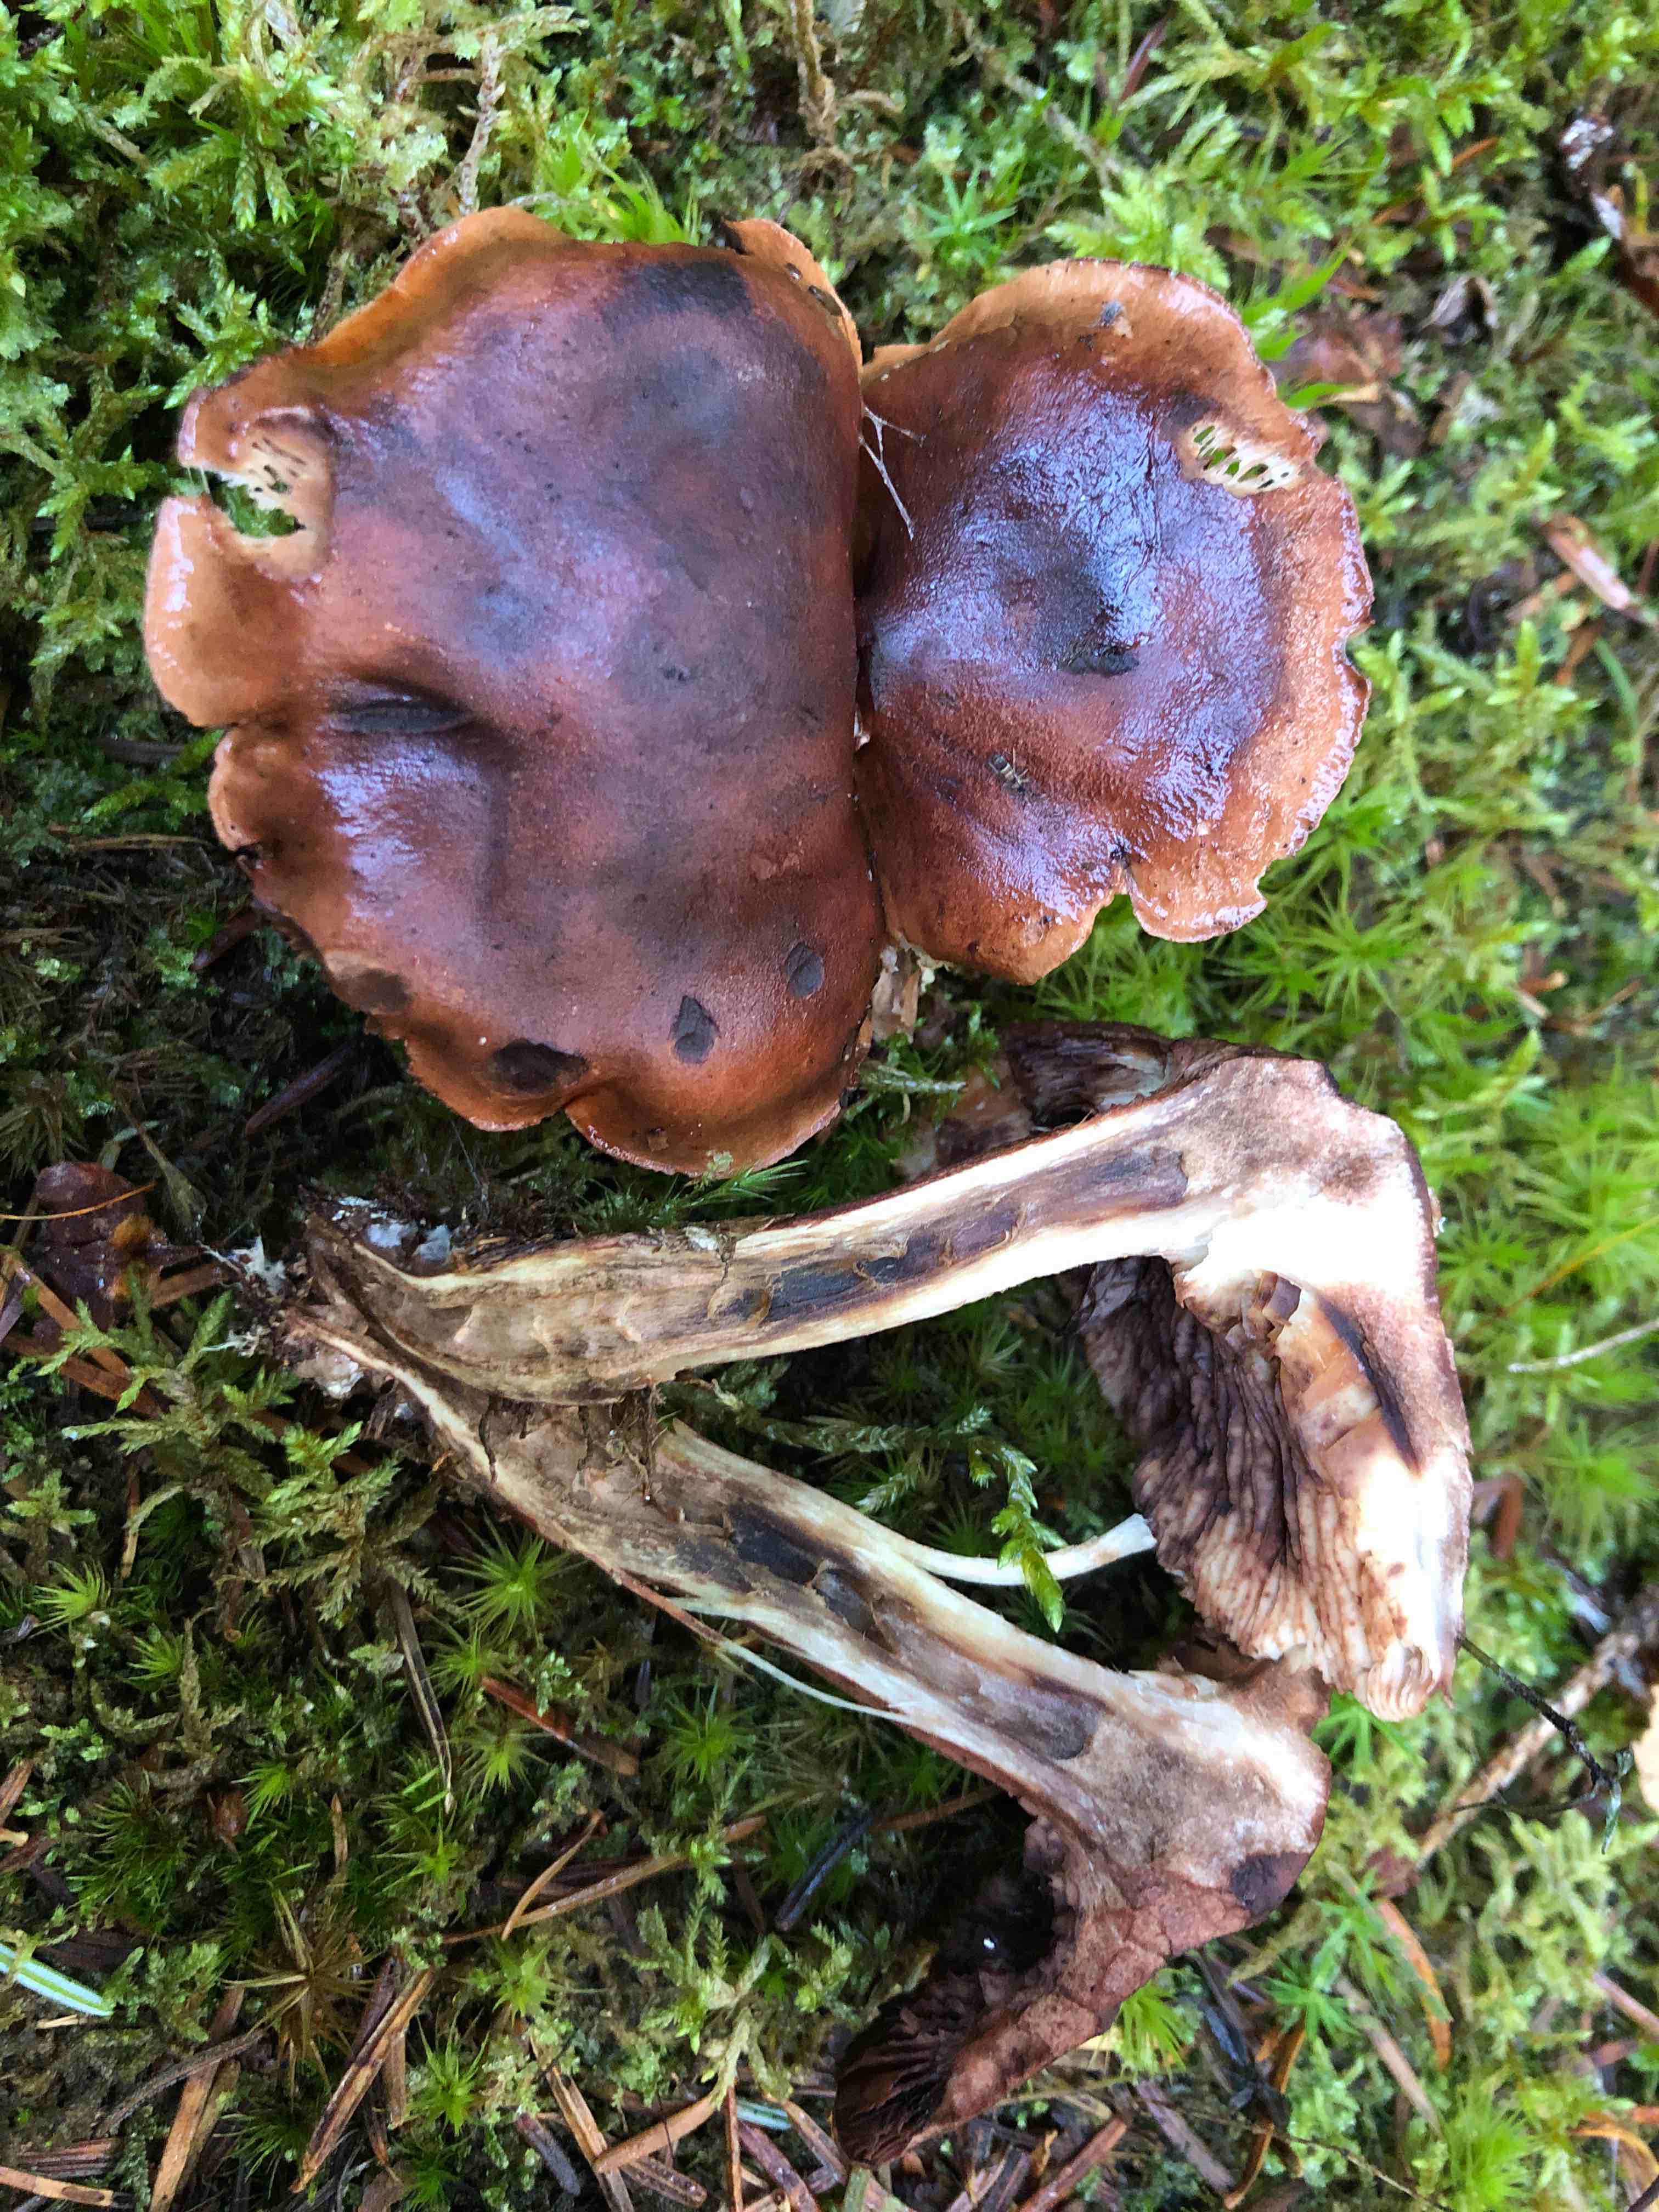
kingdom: Fungi
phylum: Basidiomycota
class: Agaricomycetes
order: Agaricales
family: Tricholomataceae
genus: Tricholoma
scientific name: Tricholoma fulvum
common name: birke-ridderhat
